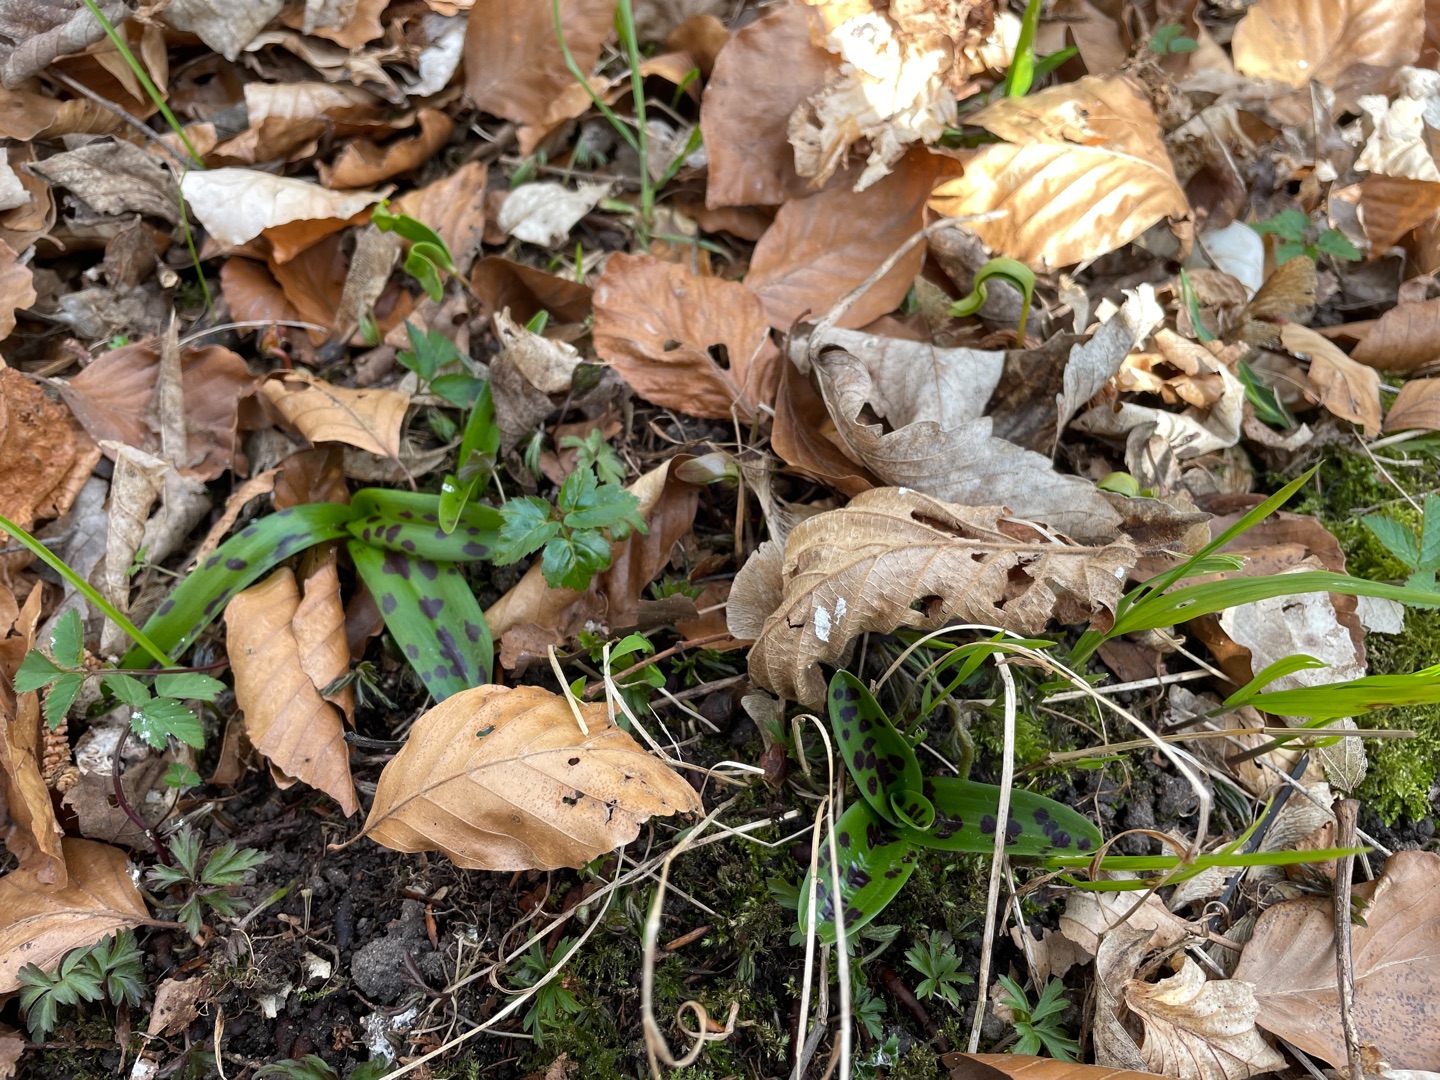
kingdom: Plantae
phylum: Tracheophyta
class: Liliopsida
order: Asparagales
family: Orchidaceae
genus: Orchis
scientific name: Orchis mascula
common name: Tyndakset gøgeurt
